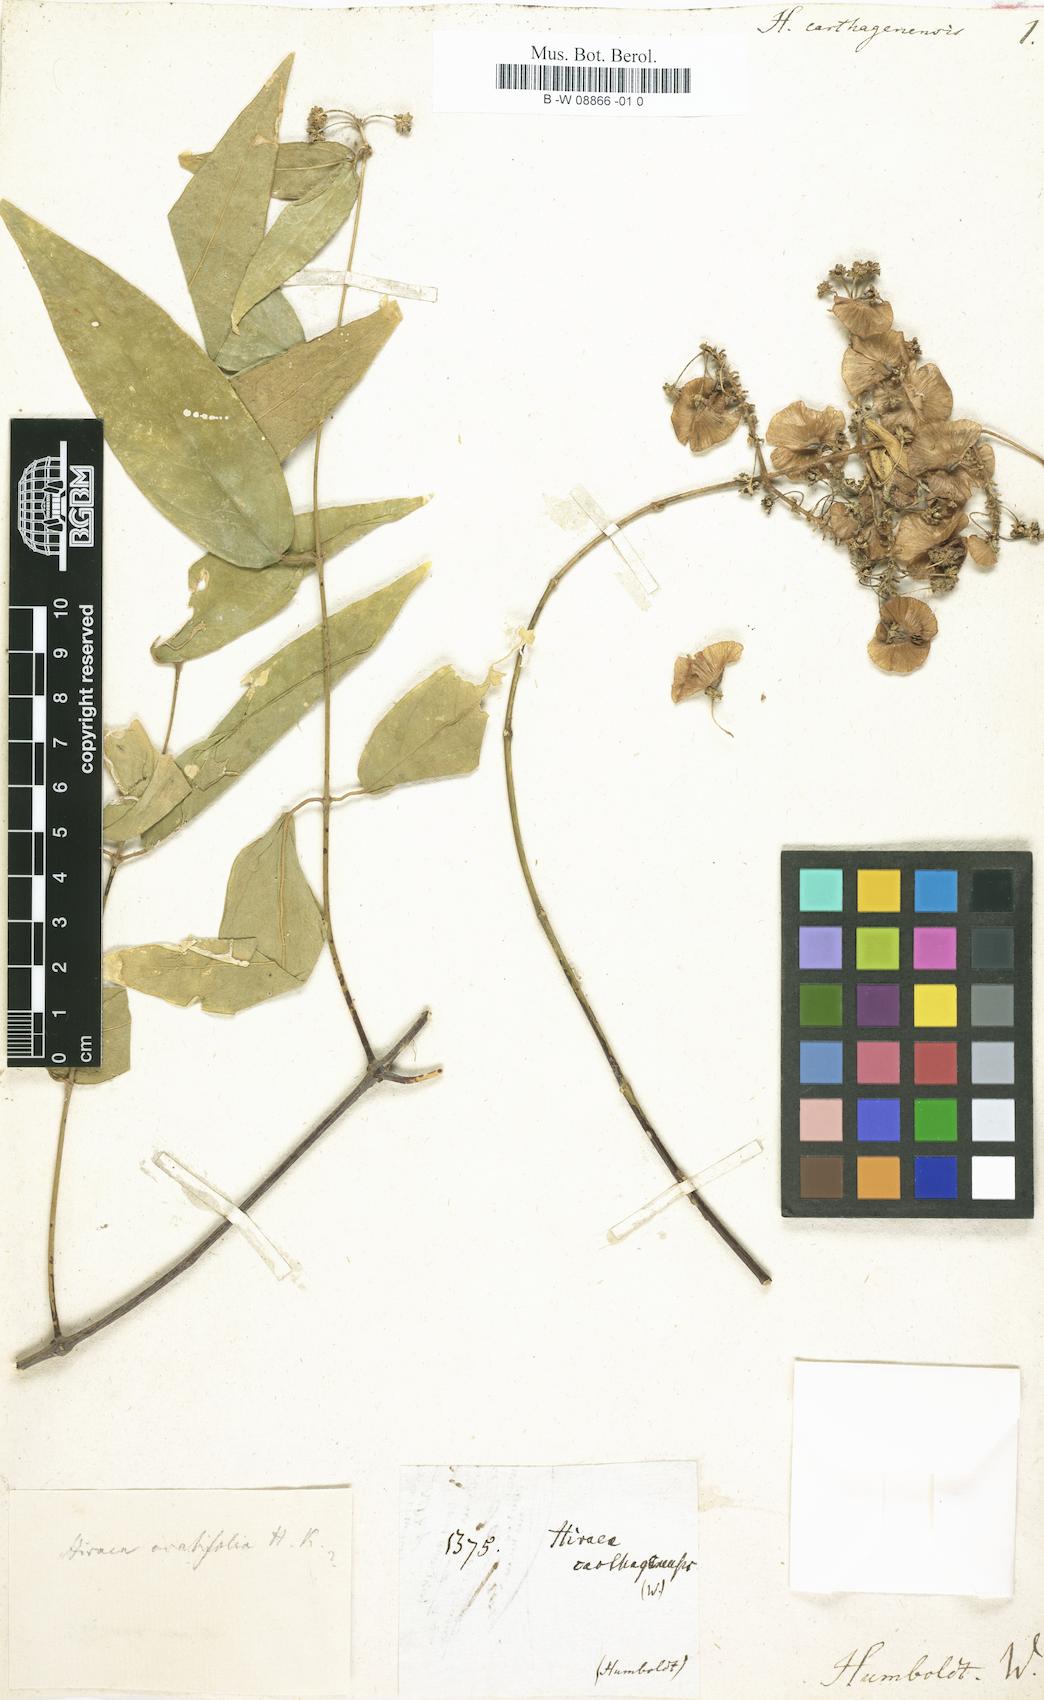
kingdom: Plantae
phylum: Tracheophyta
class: Magnoliopsida
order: Malpighiales
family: Malpighiaceae
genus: Hiraea
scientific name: Hiraea
